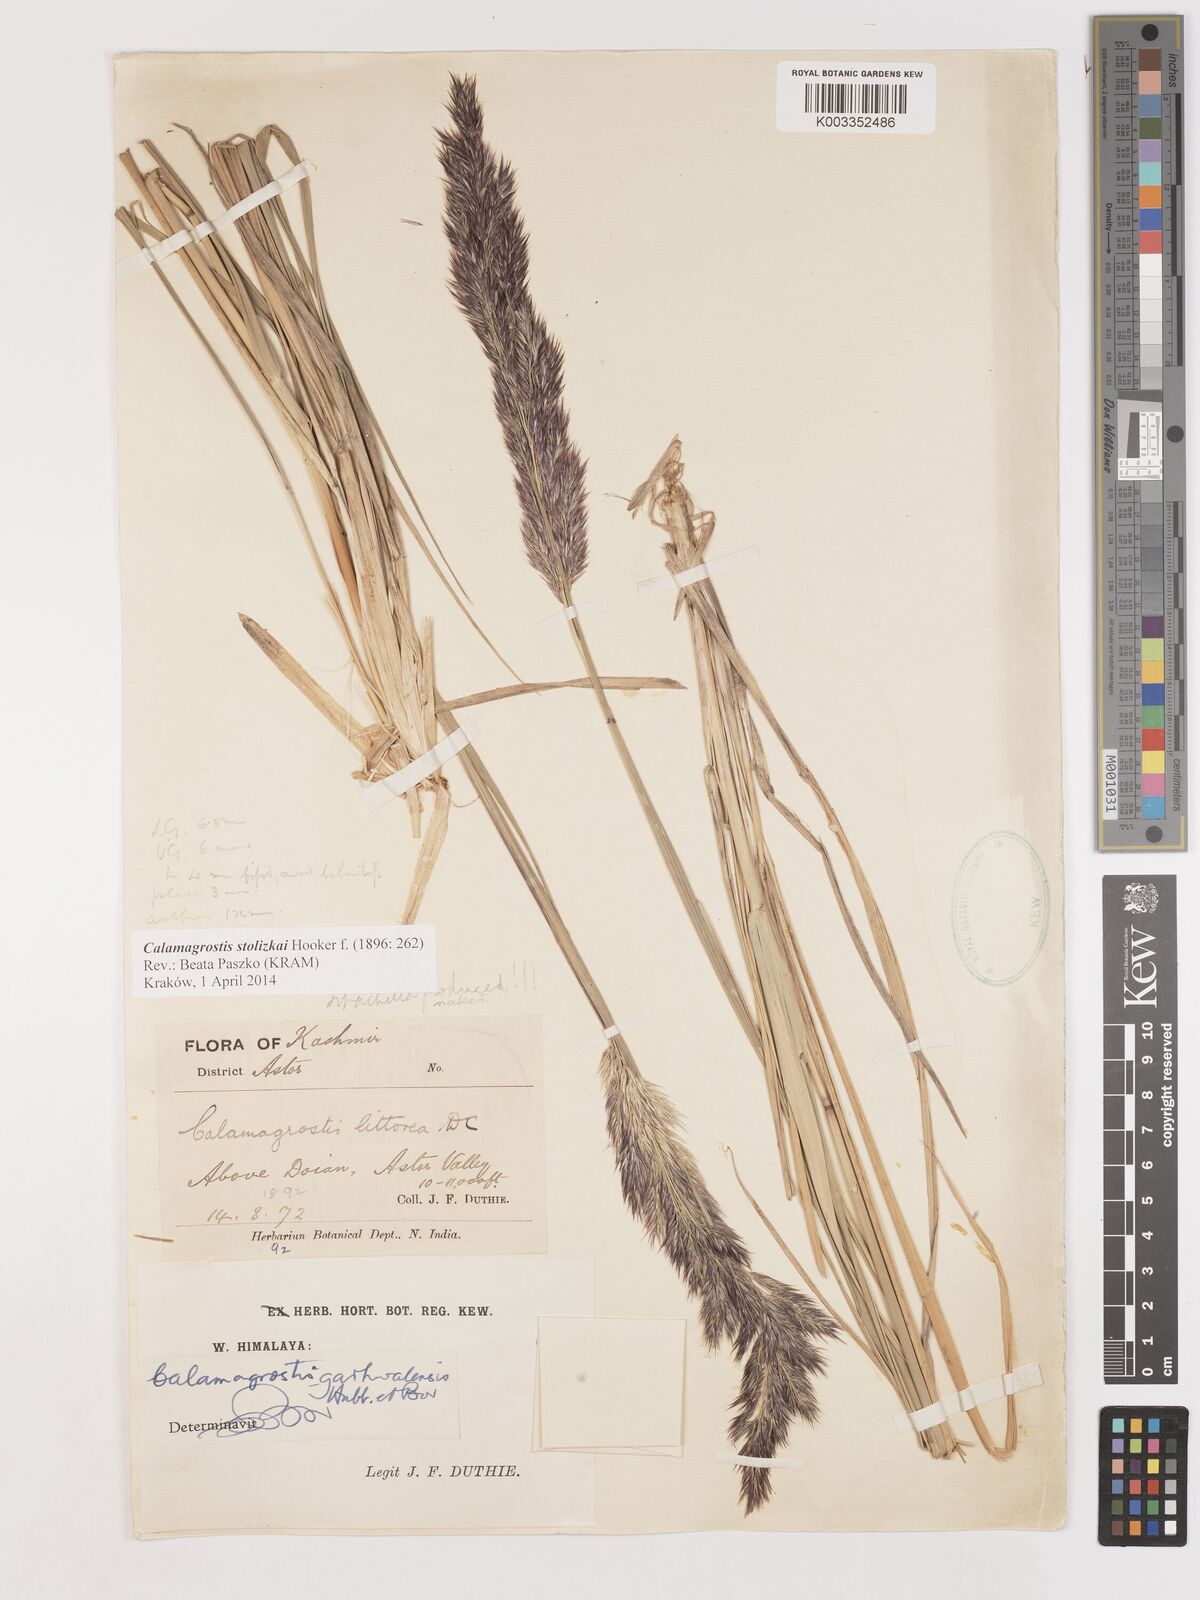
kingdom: Plantae
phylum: Tracheophyta
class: Liliopsida
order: Poales
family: Poaceae
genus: Calamagrostis
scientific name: Calamagrostis stolizkae
